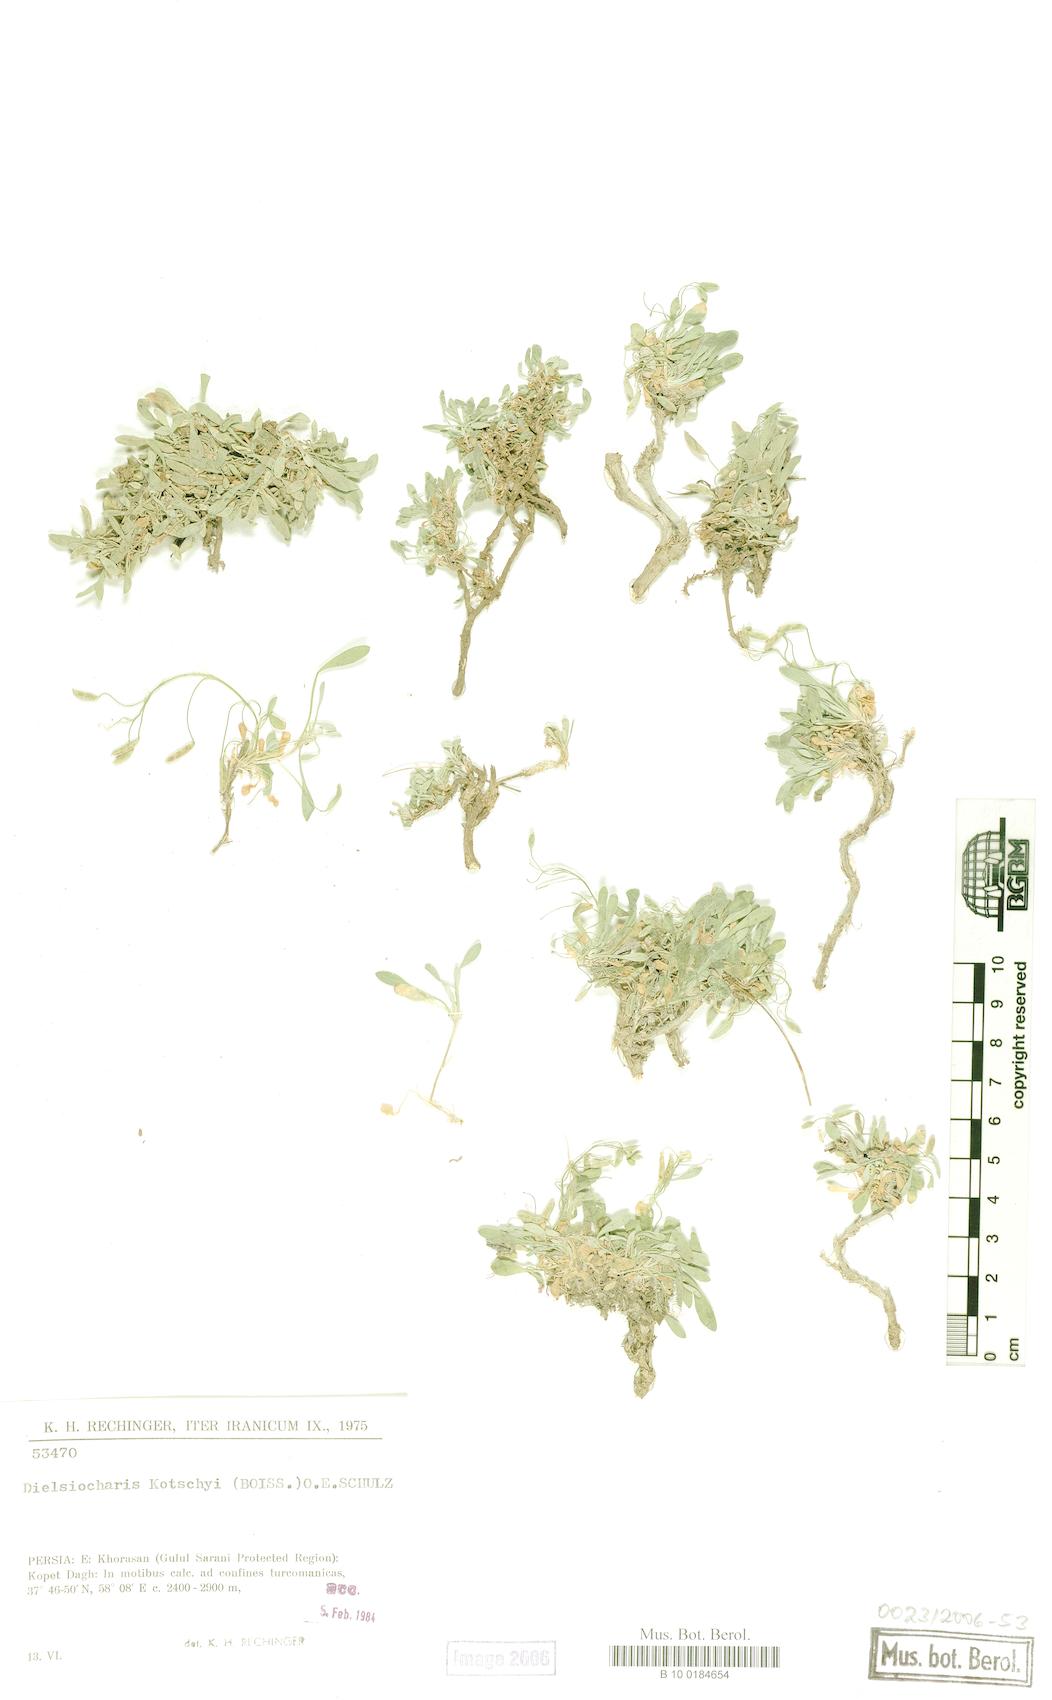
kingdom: Plantae
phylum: Tracheophyta
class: Magnoliopsida
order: Brassicales
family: Brassicaceae
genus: Dielsiocharis
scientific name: Dielsiocharis kotschyi
